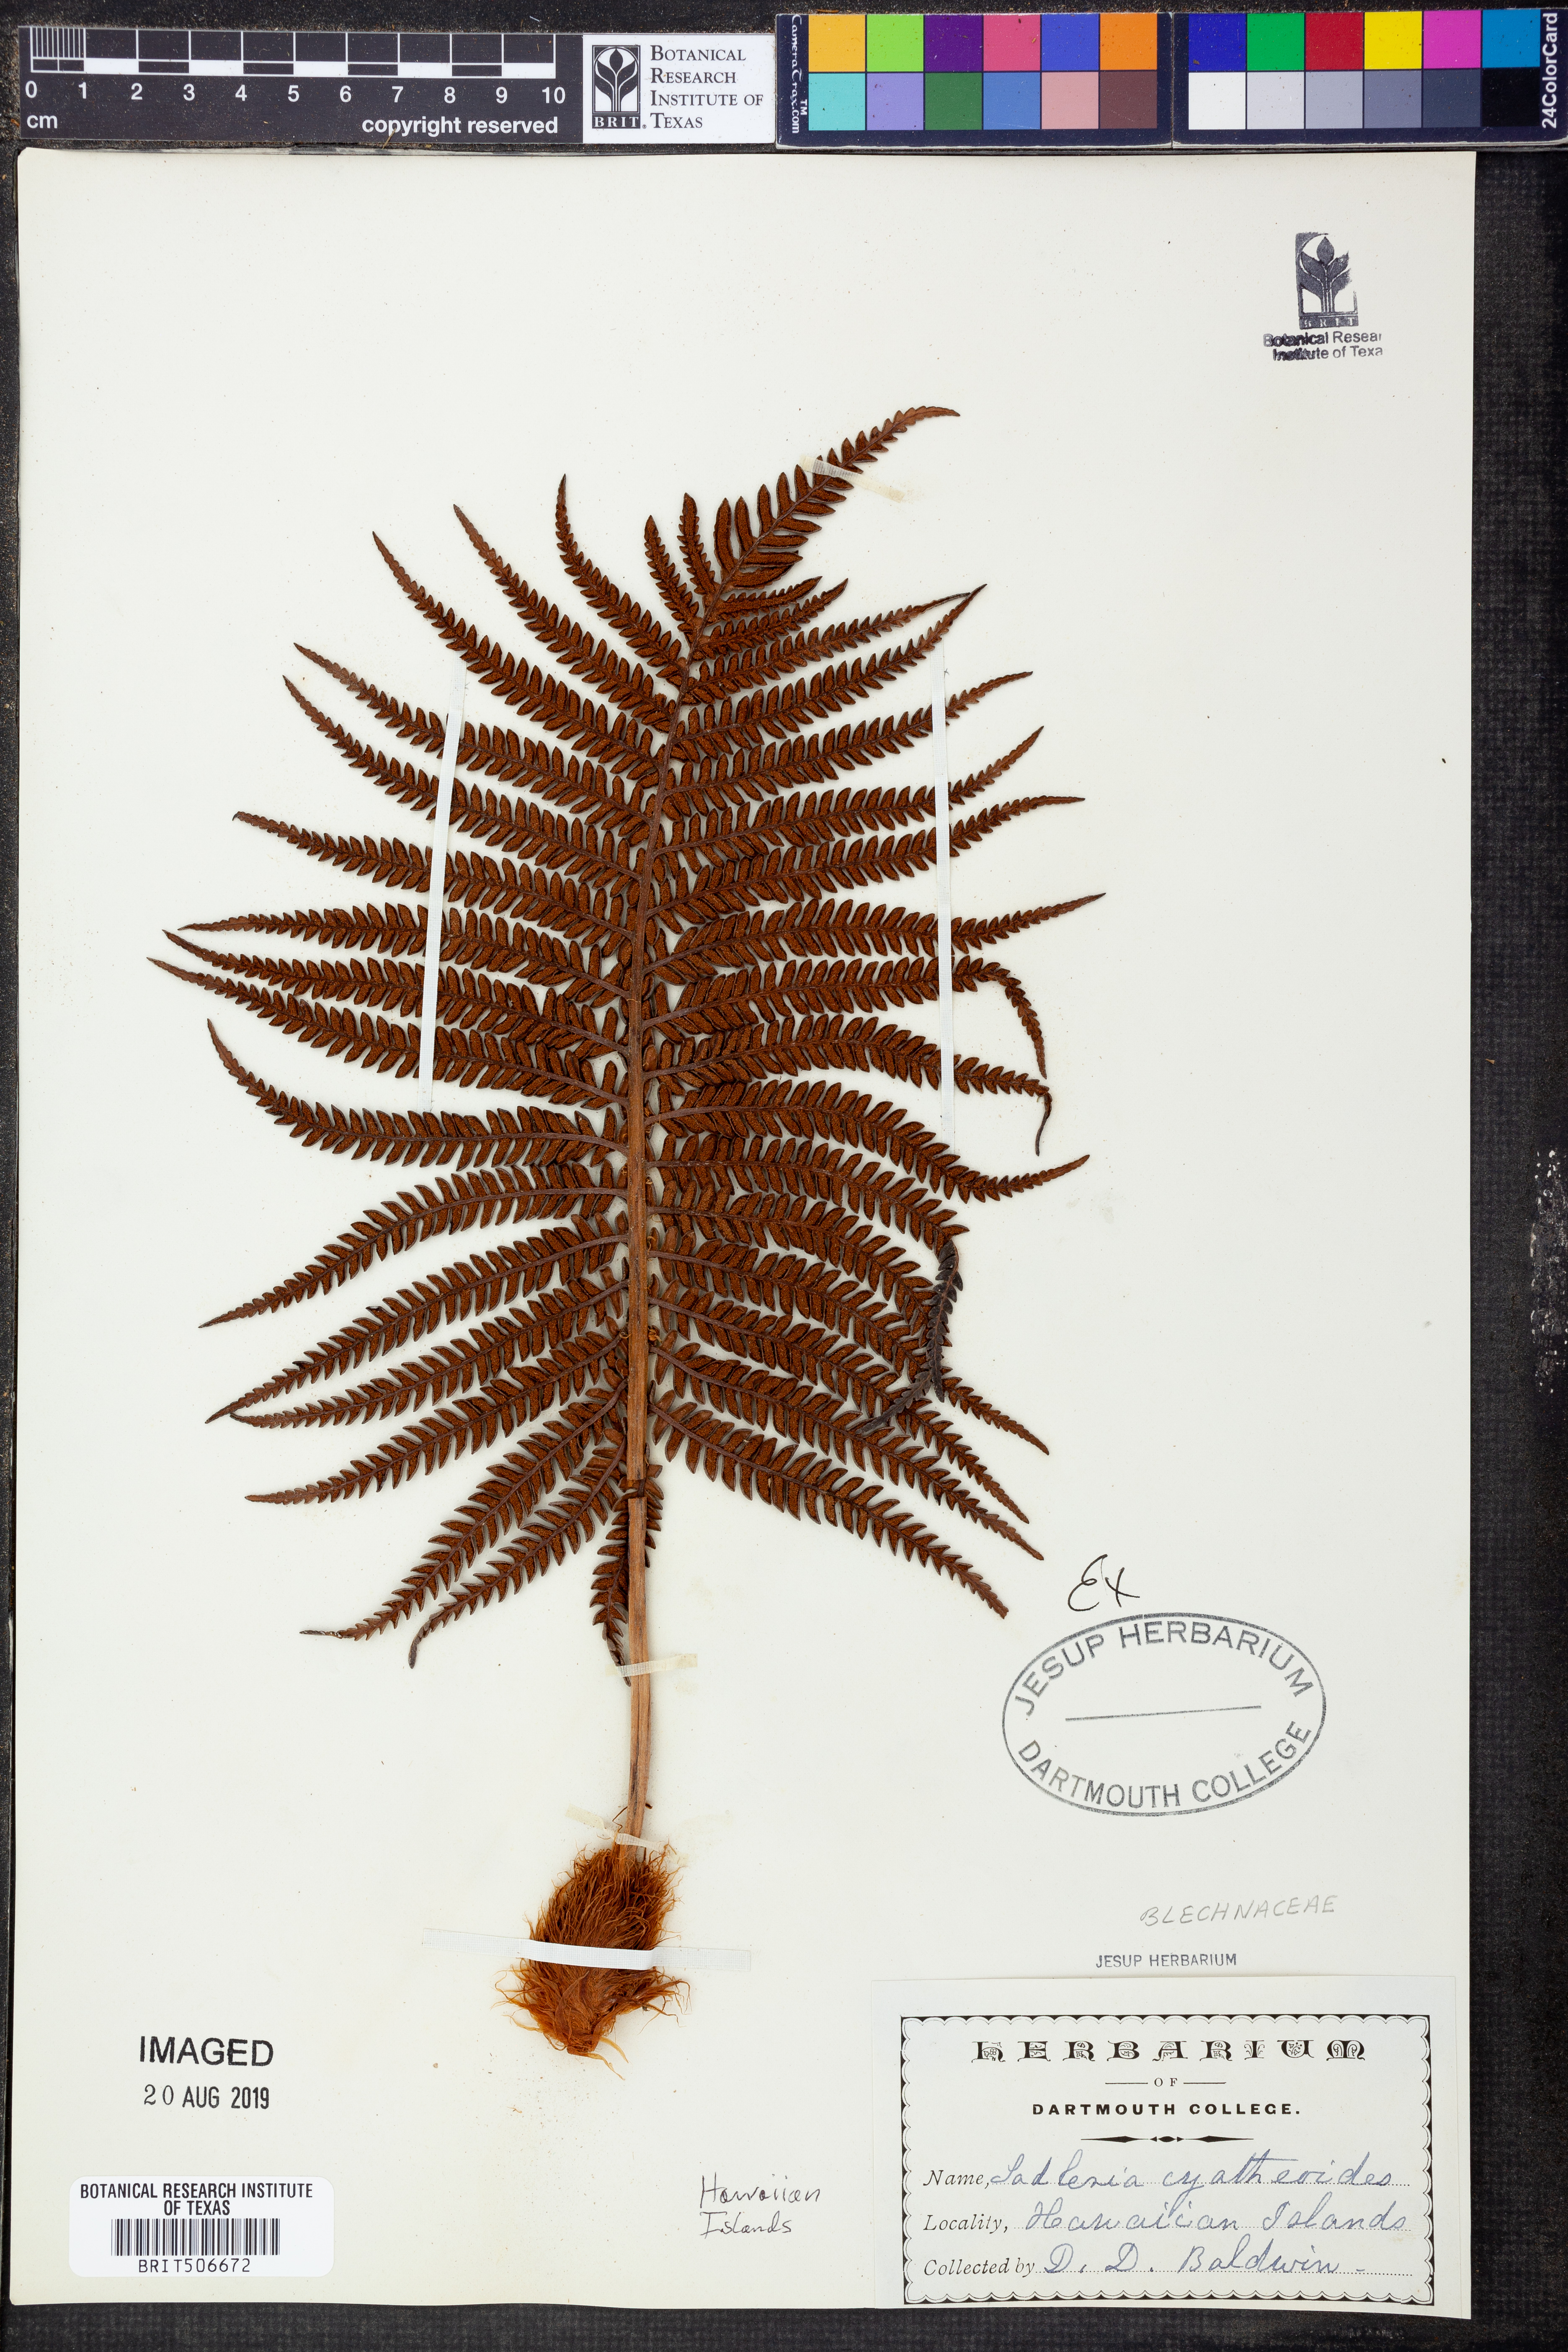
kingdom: Plantae
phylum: Tracheophyta
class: Polypodiopsida
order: Polypodiales
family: Blechnaceae
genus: Sadleria
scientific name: Sadleria cyatheoides
